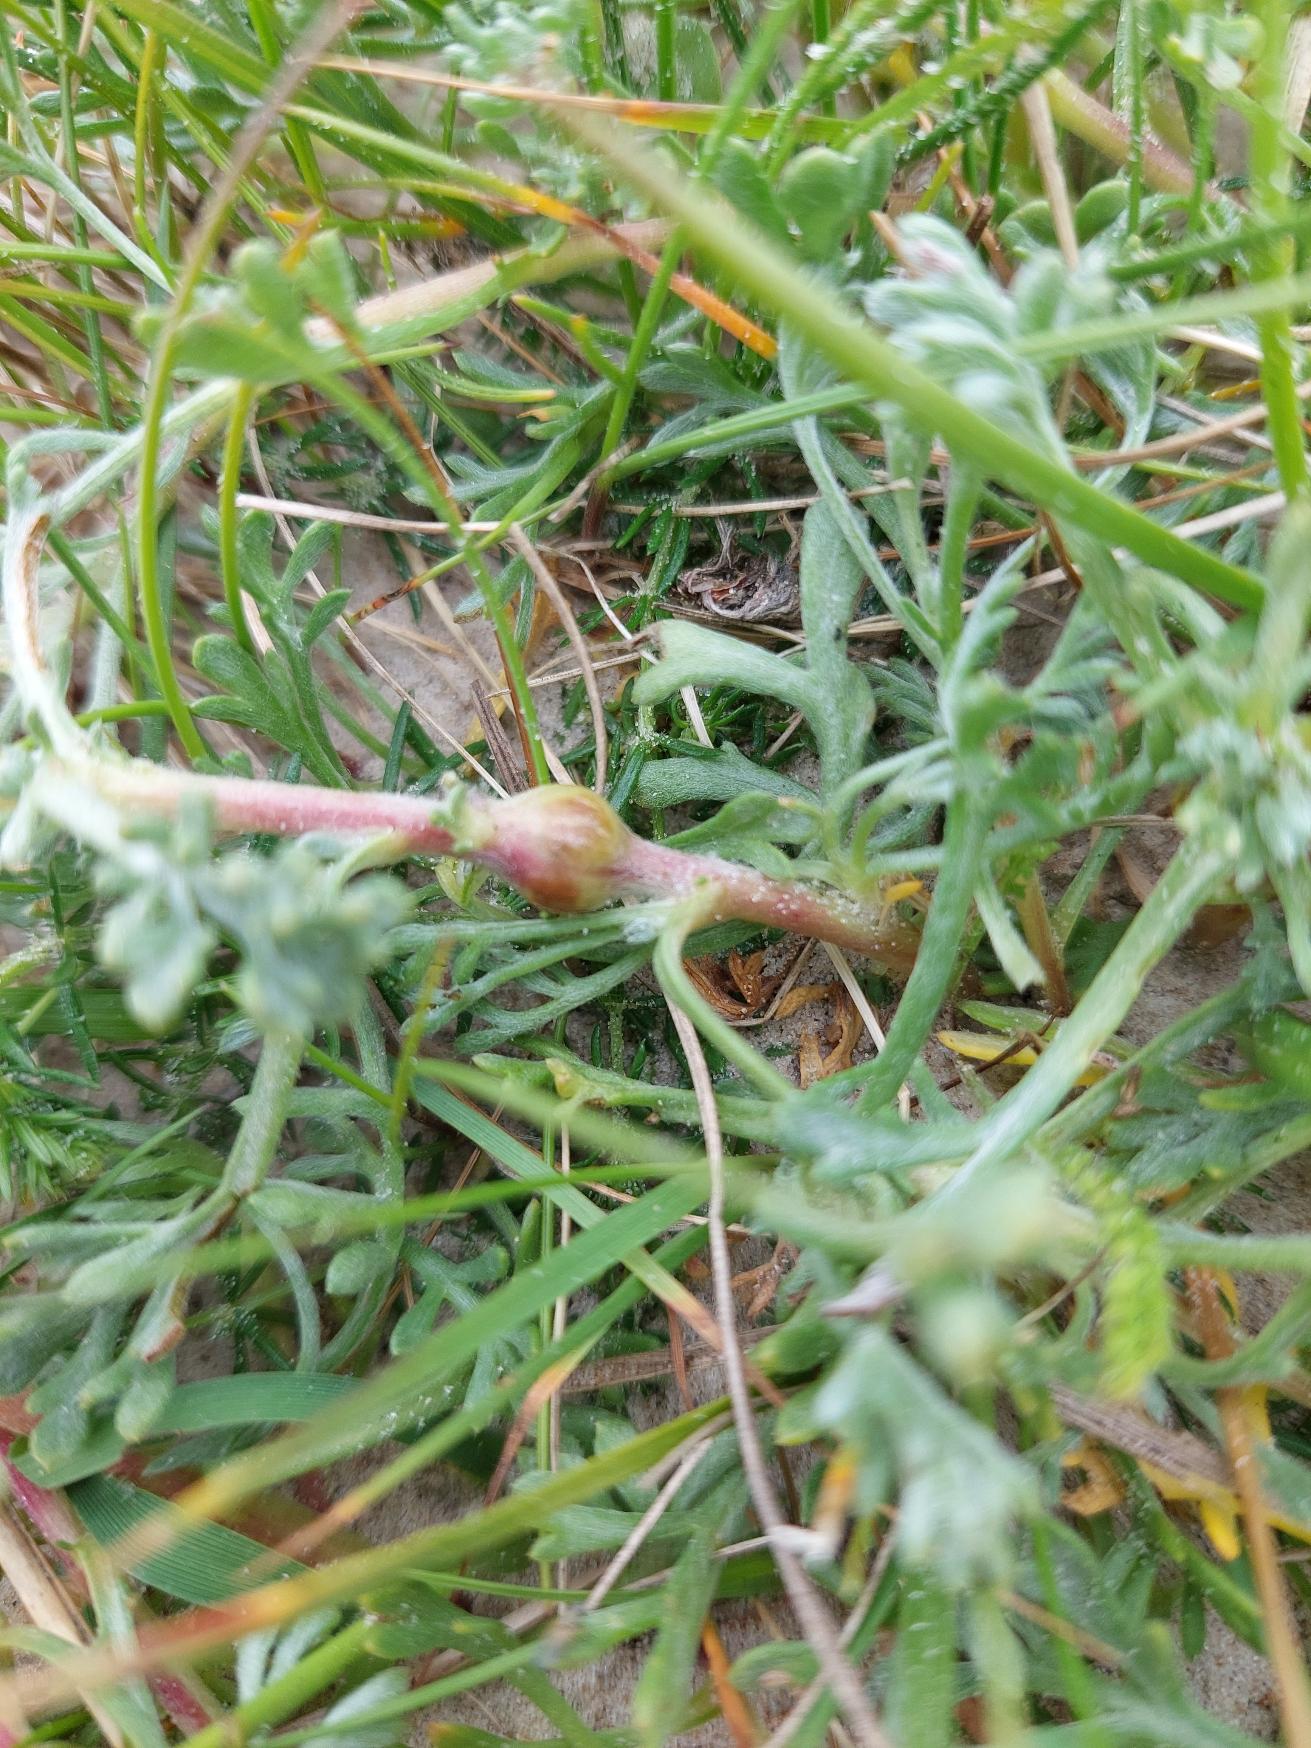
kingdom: Animalia
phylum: Arthropoda
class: Insecta
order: Coleoptera
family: Apionidae
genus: Taphrotopium
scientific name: Taphrotopium sulcifrons
